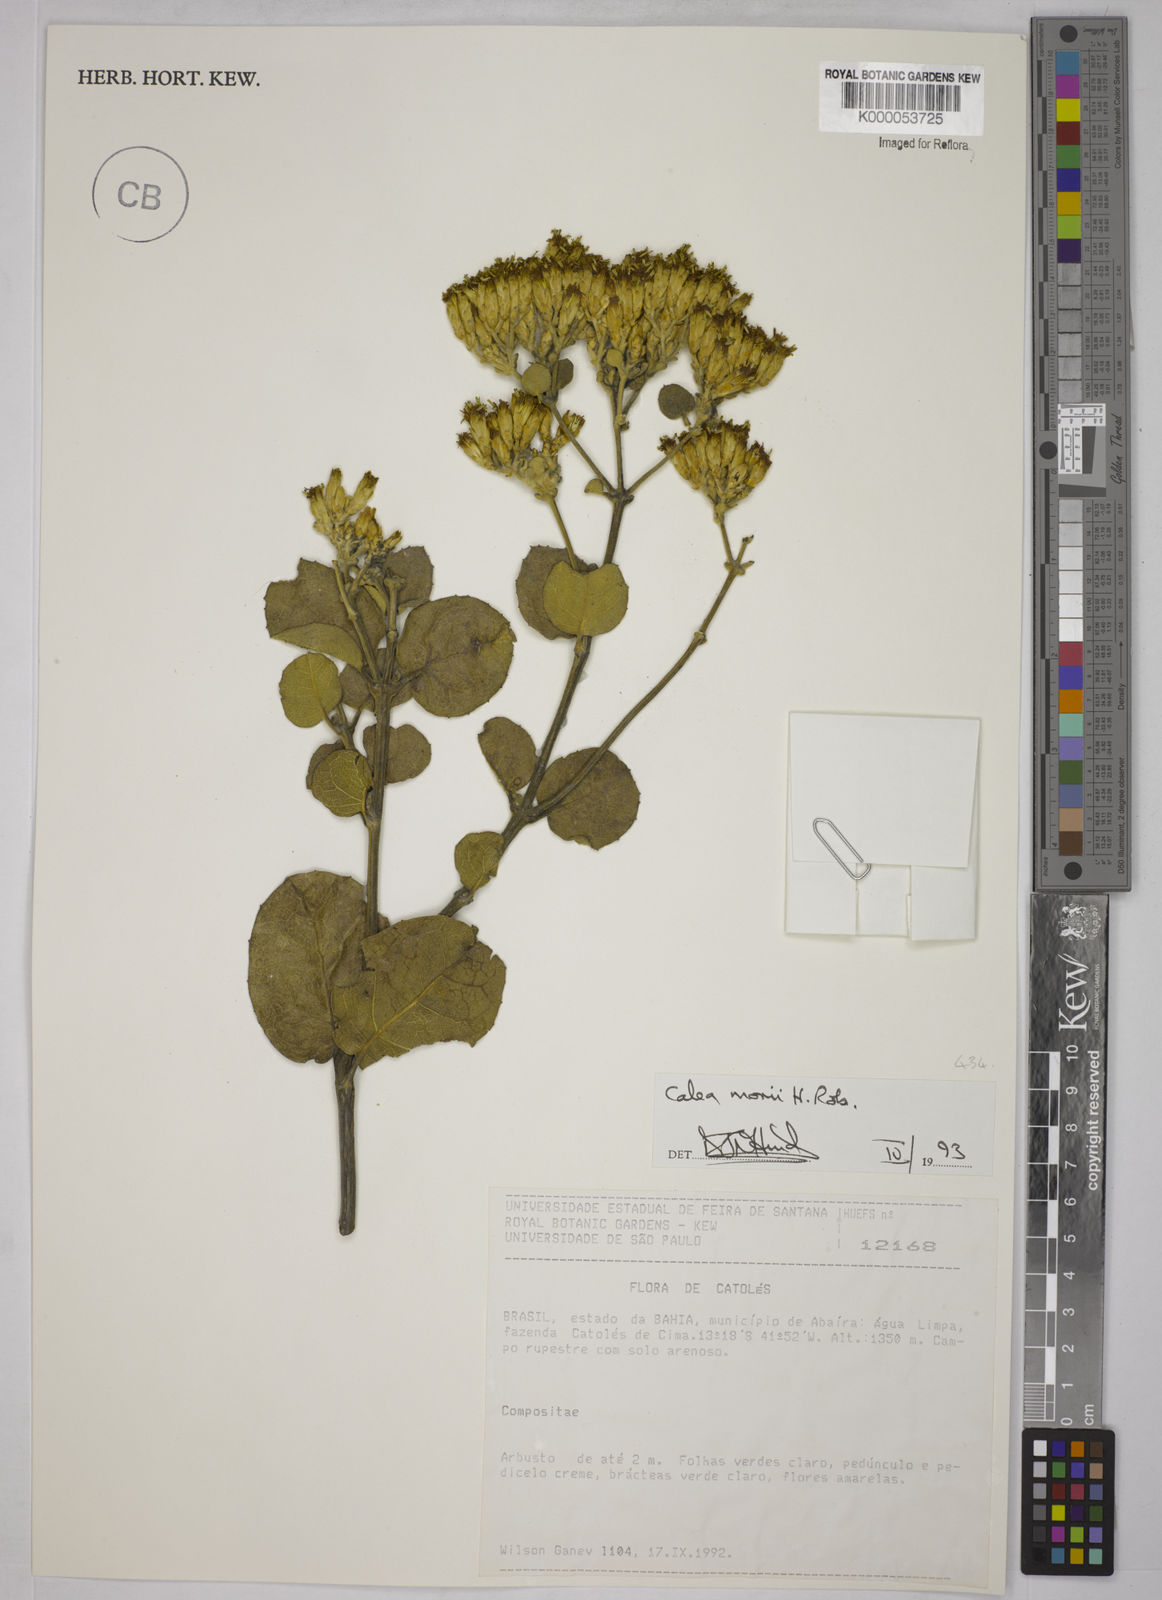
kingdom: Plantae
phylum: Tracheophyta
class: Magnoliopsida
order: Asterales
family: Asteraceae
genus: Calea
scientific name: Calea morii
